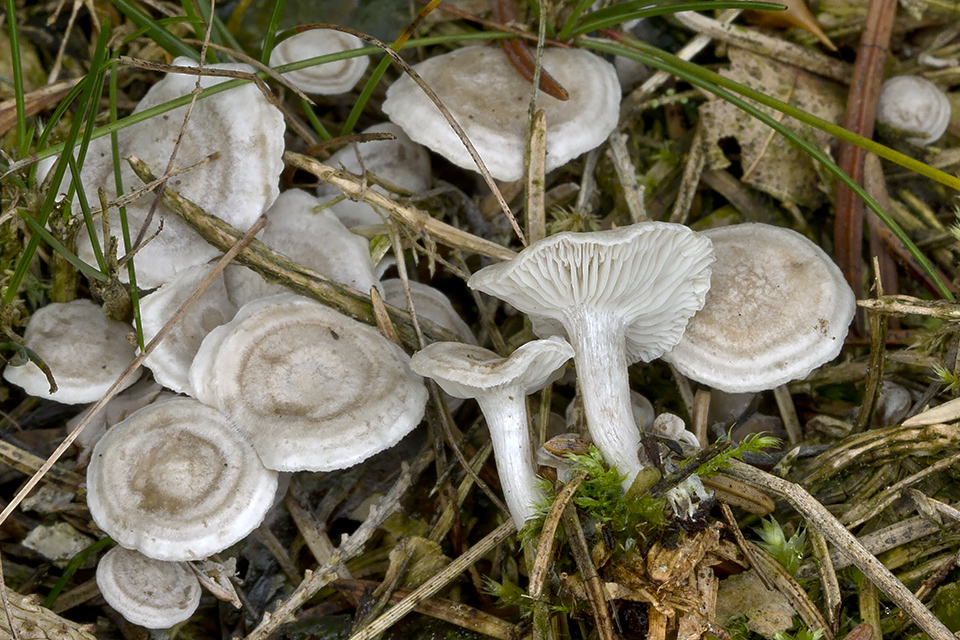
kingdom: Fungi
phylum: Basidiomycota
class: Agaricomycetes
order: Agaricales
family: Tricholomataceae
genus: Leucocybe
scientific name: Leucocybe candicans
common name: kridt-tragthat
